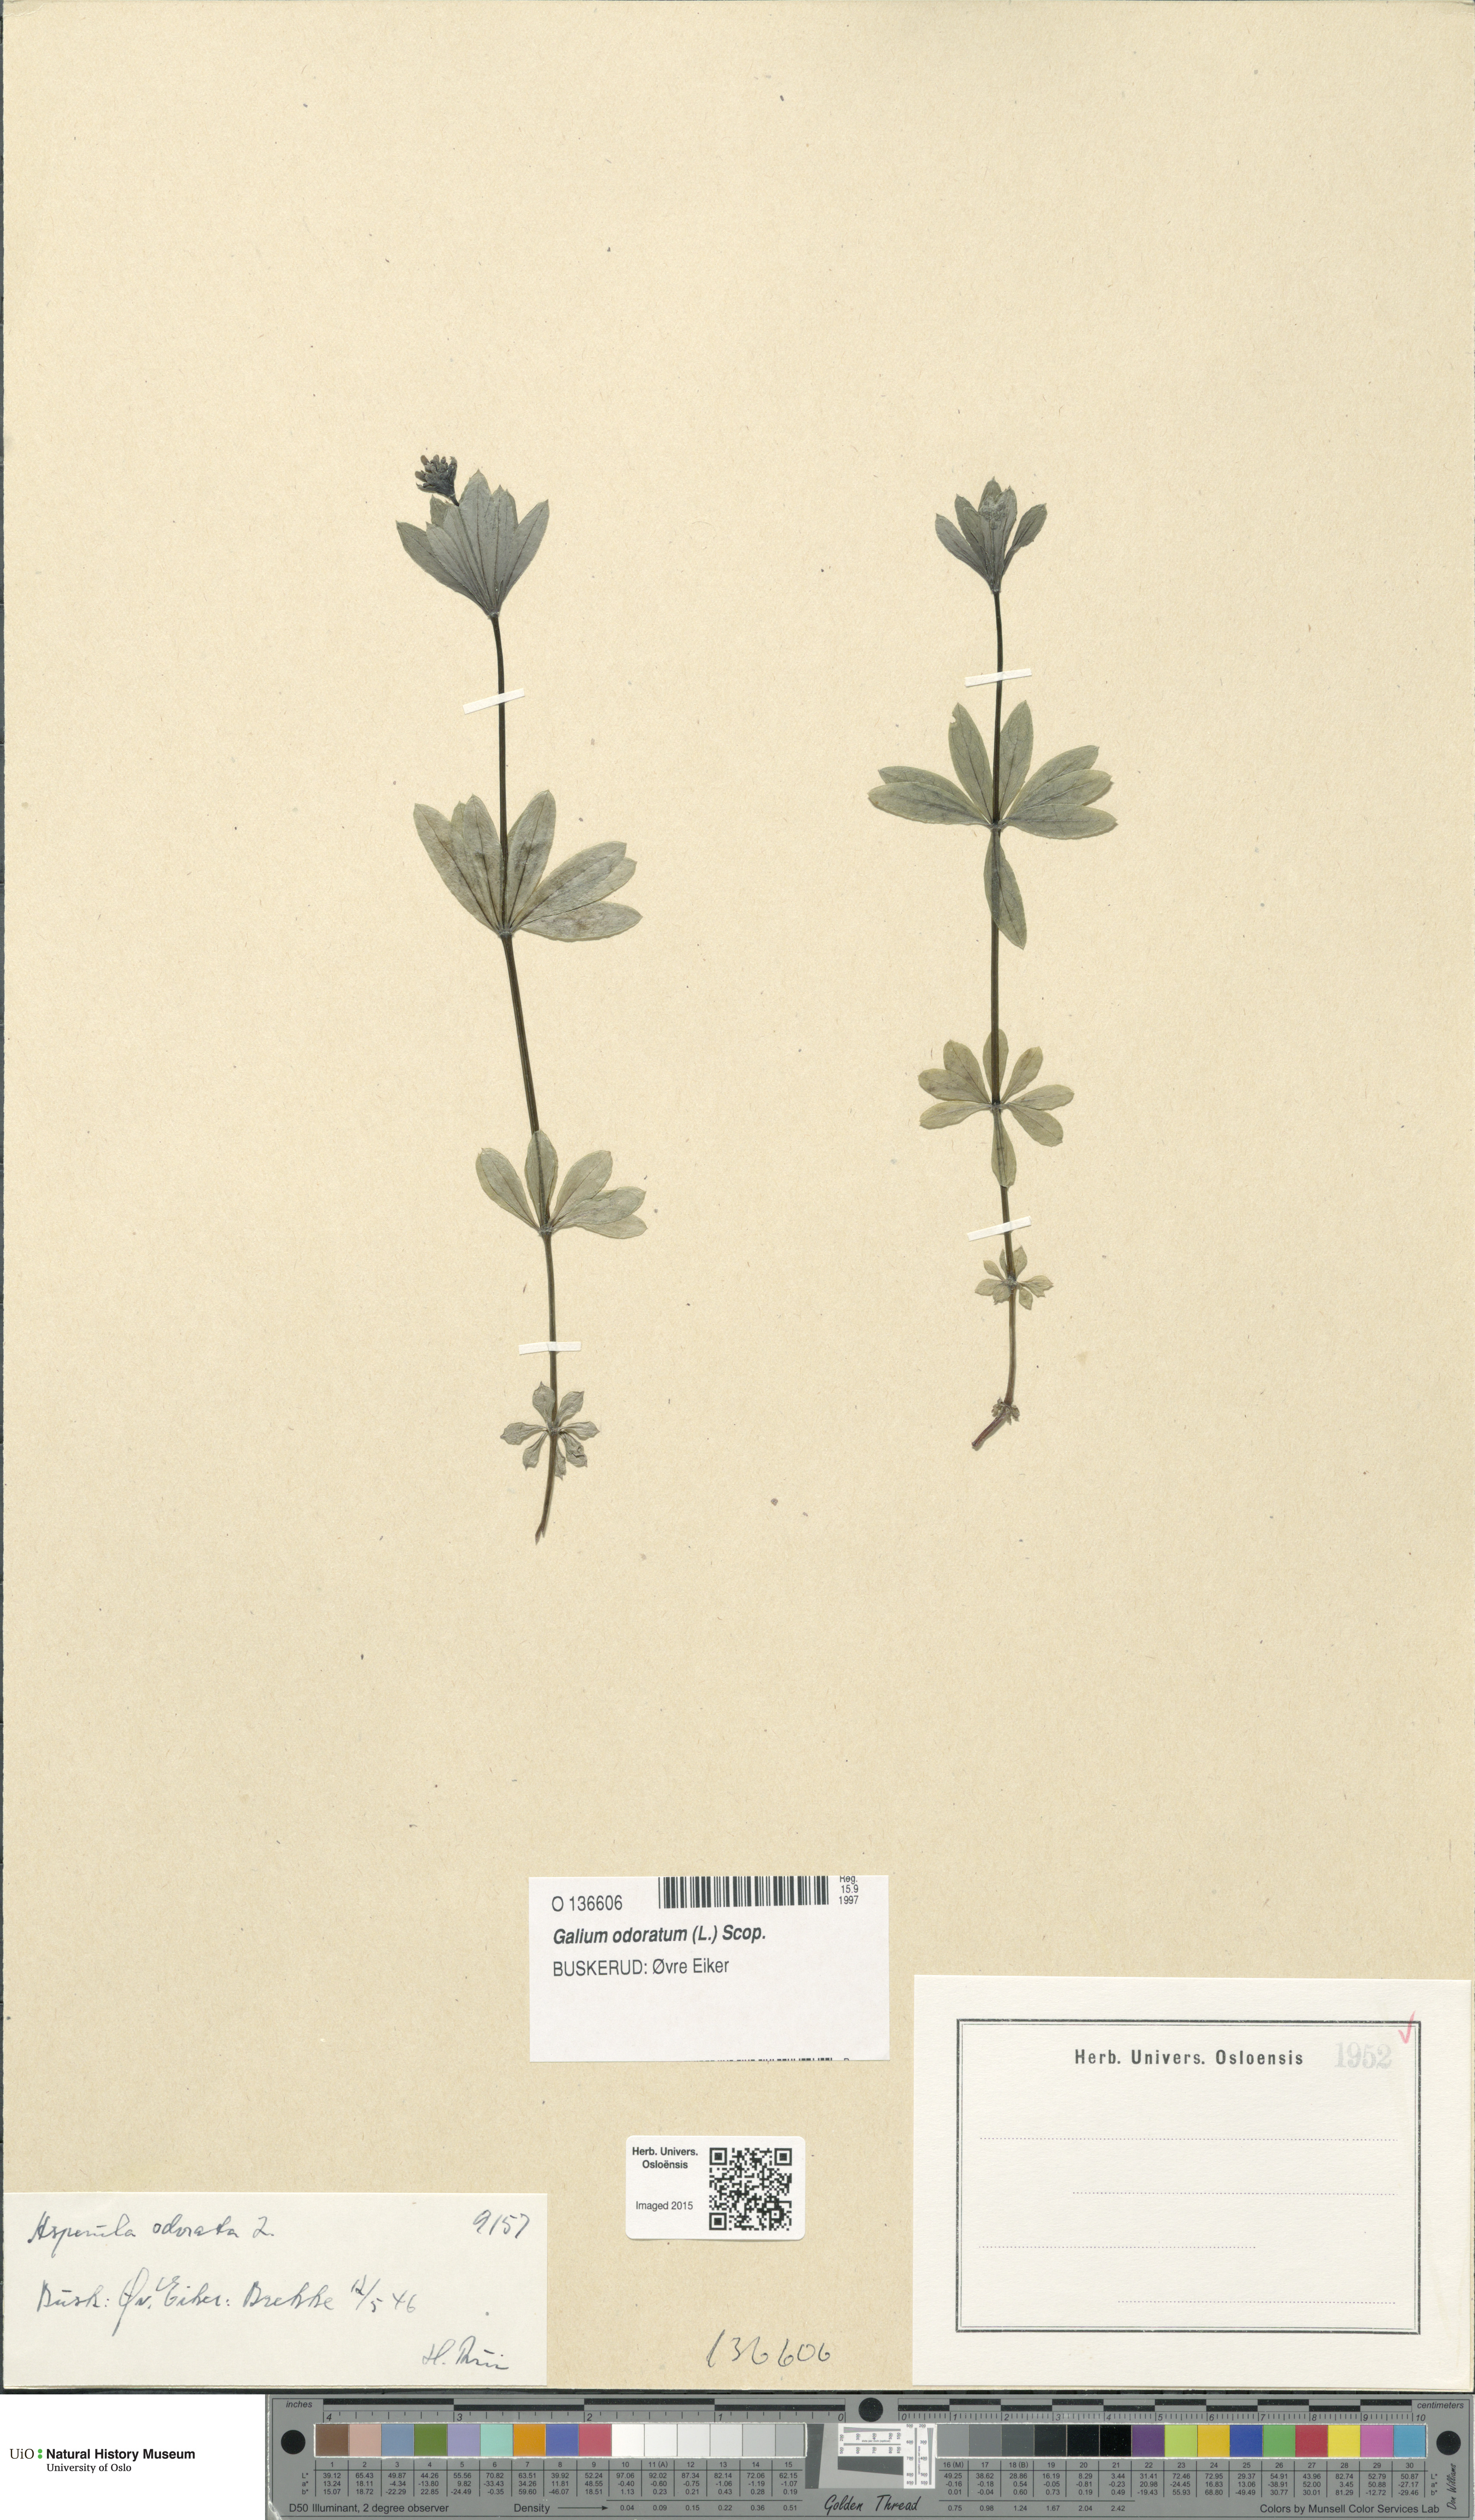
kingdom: Plantae
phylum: Tracheophyta
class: Magnoliopsida
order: Gentianales
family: Rubiaceae
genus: Galium
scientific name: Galium odoratum
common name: Sweet woodruff
